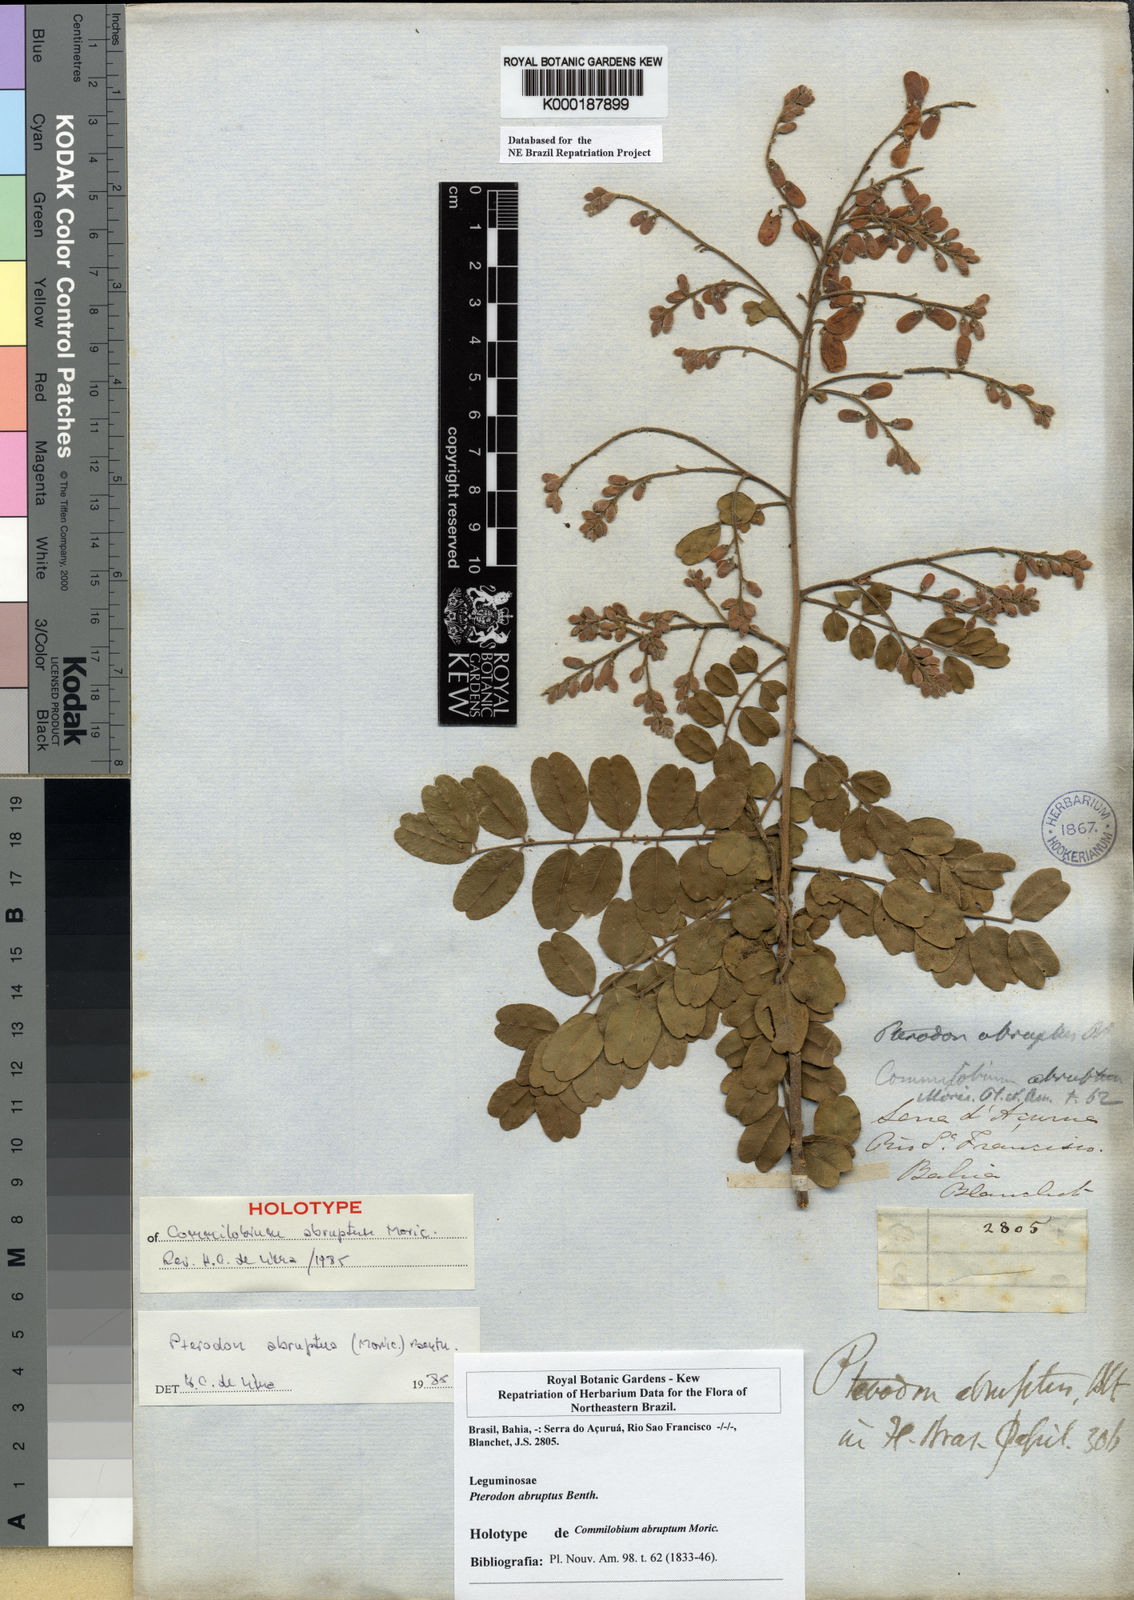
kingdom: Plantae
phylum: Tracheophyta
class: Magnoliopsida
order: Fabales
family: Fabaceae
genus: Pterodon
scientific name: Pterodon abruptus
